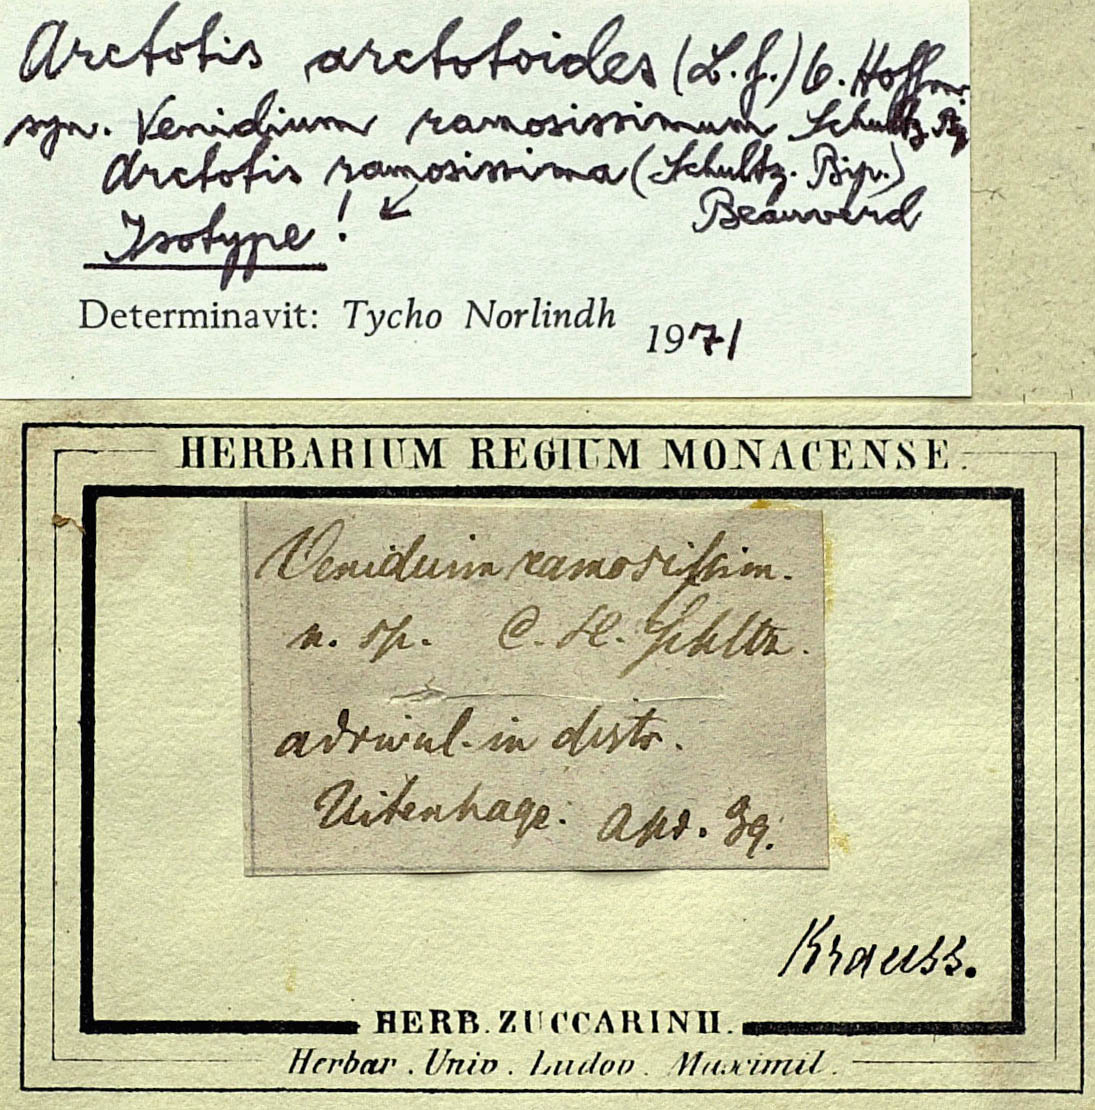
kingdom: Plantae
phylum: Tracheophyta
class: Magnoliopsida
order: Asterales
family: Asteraceae
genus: Arctotis
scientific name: Arctotis arctotoides
